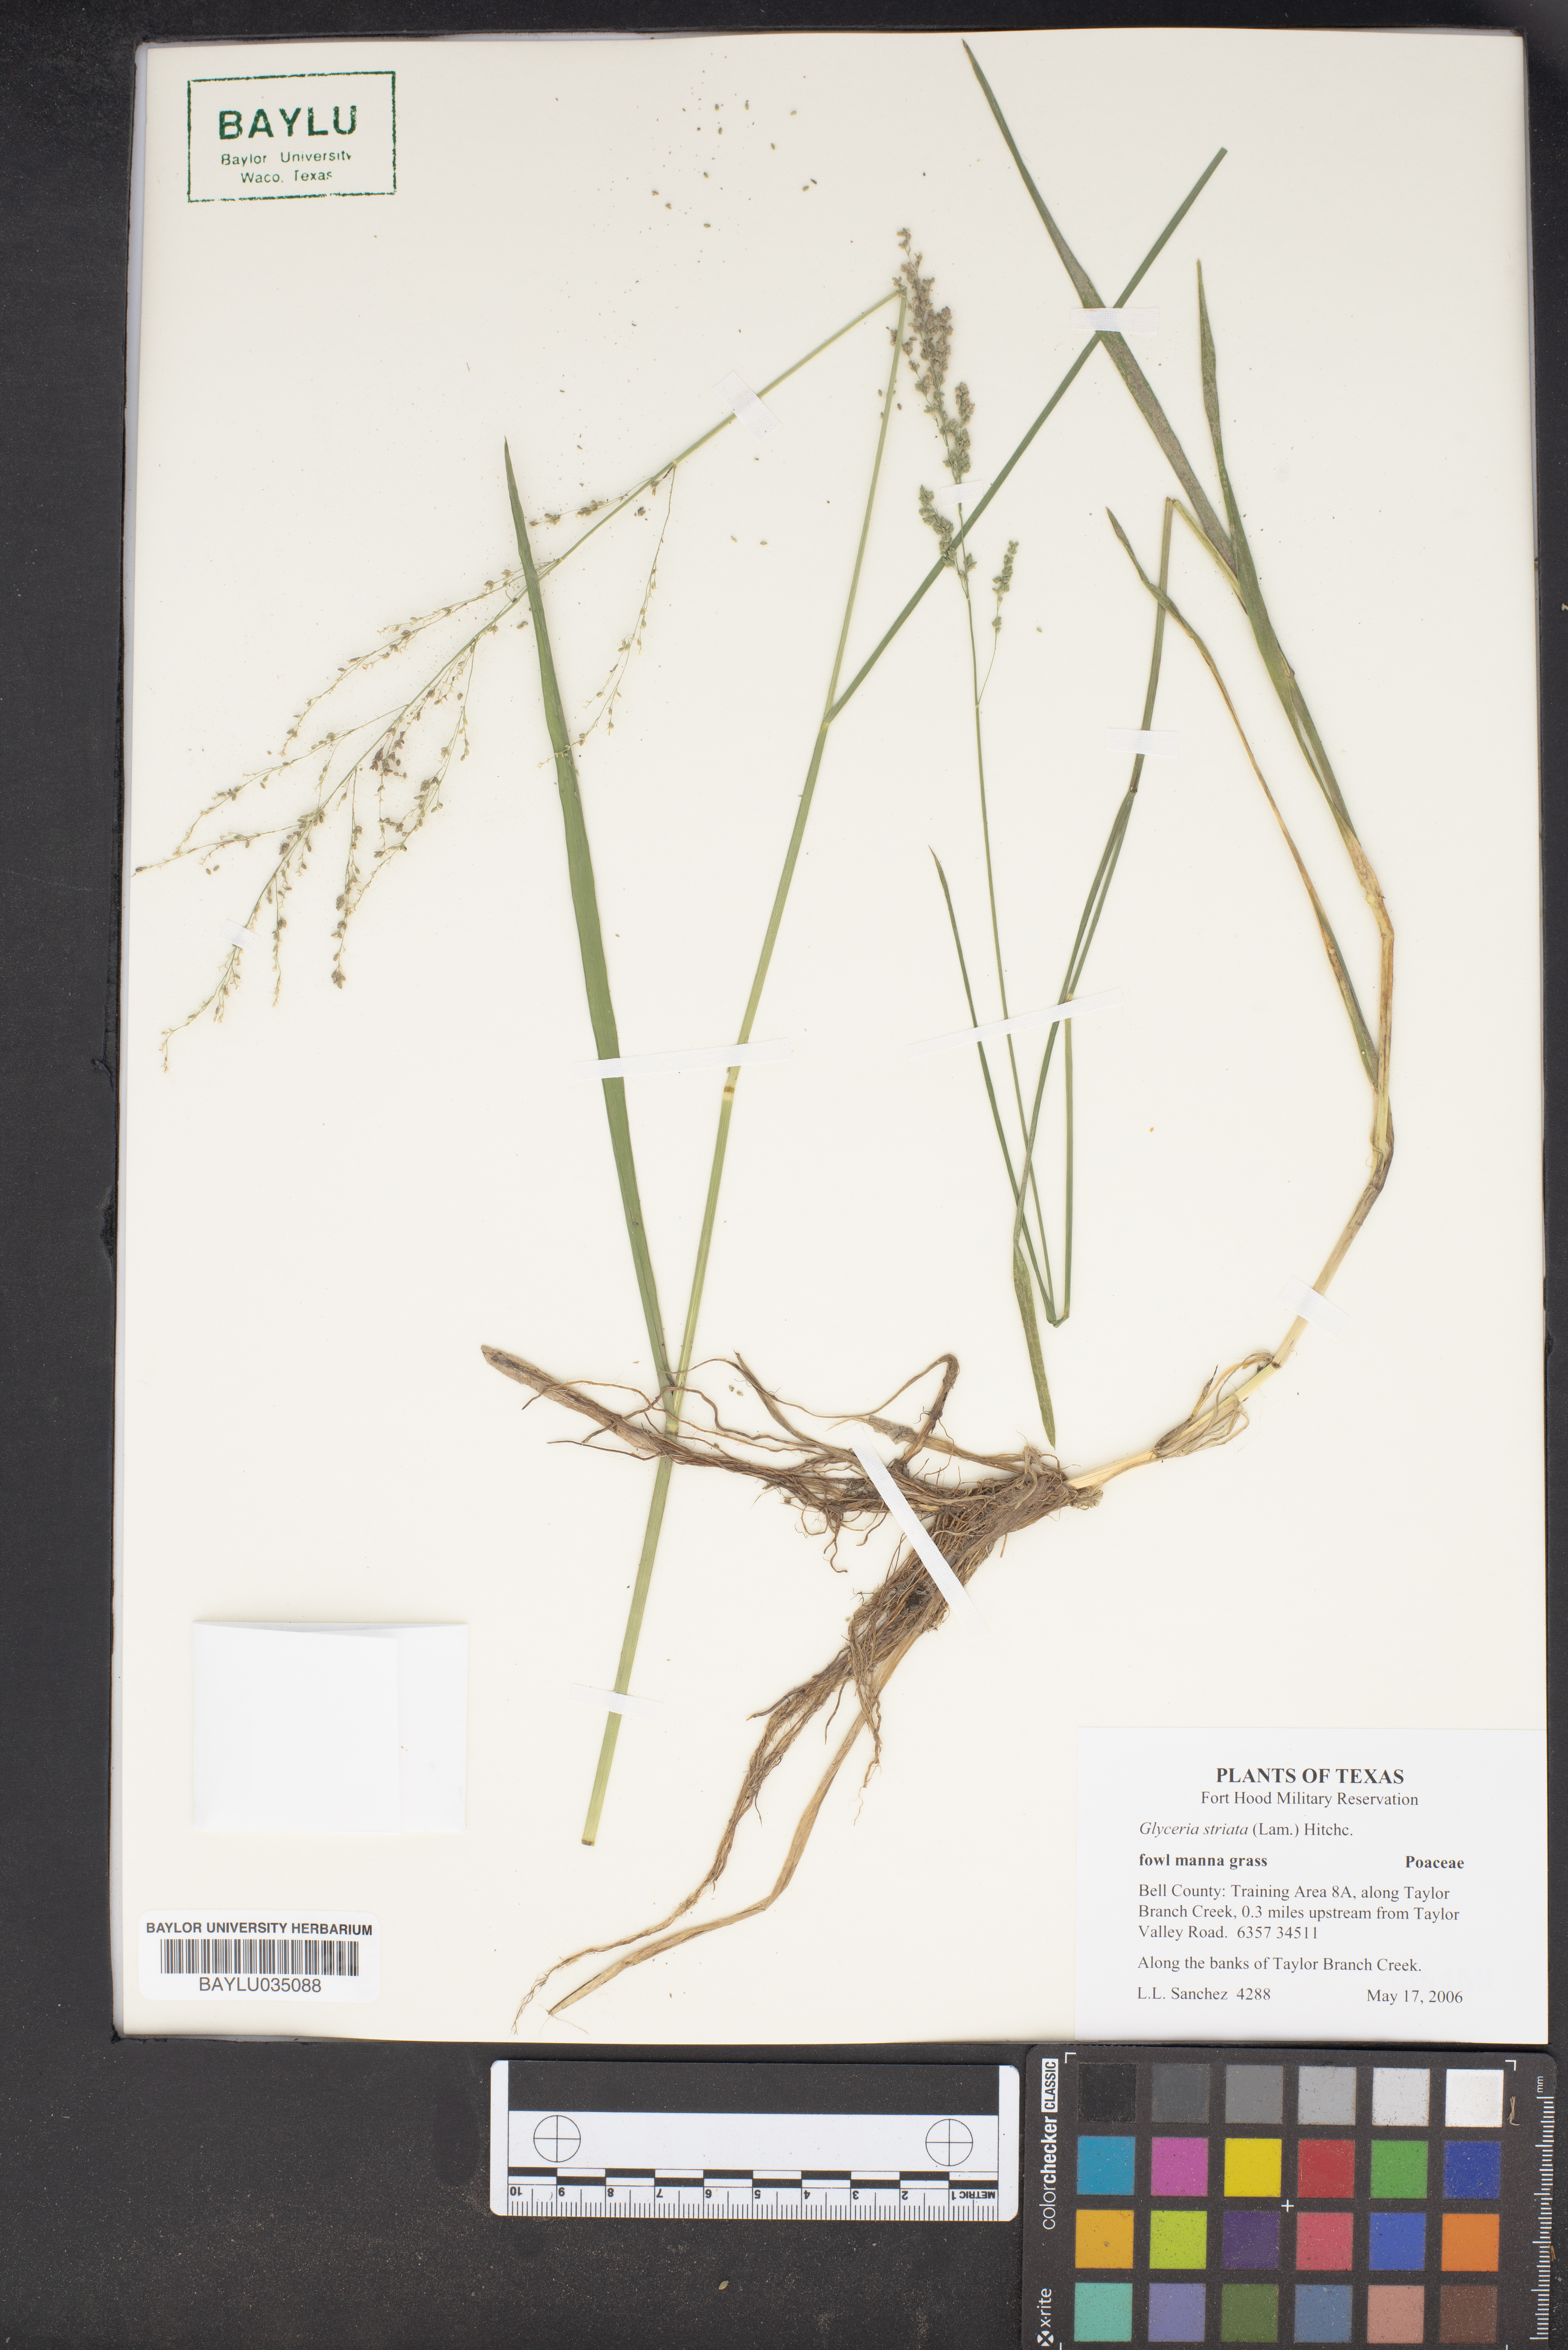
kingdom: Plantae
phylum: Tracheophyta
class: Liliopsida
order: Poales
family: Poaceae
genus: Glyceria
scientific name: Glyceria striata
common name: Fowl manna grass
